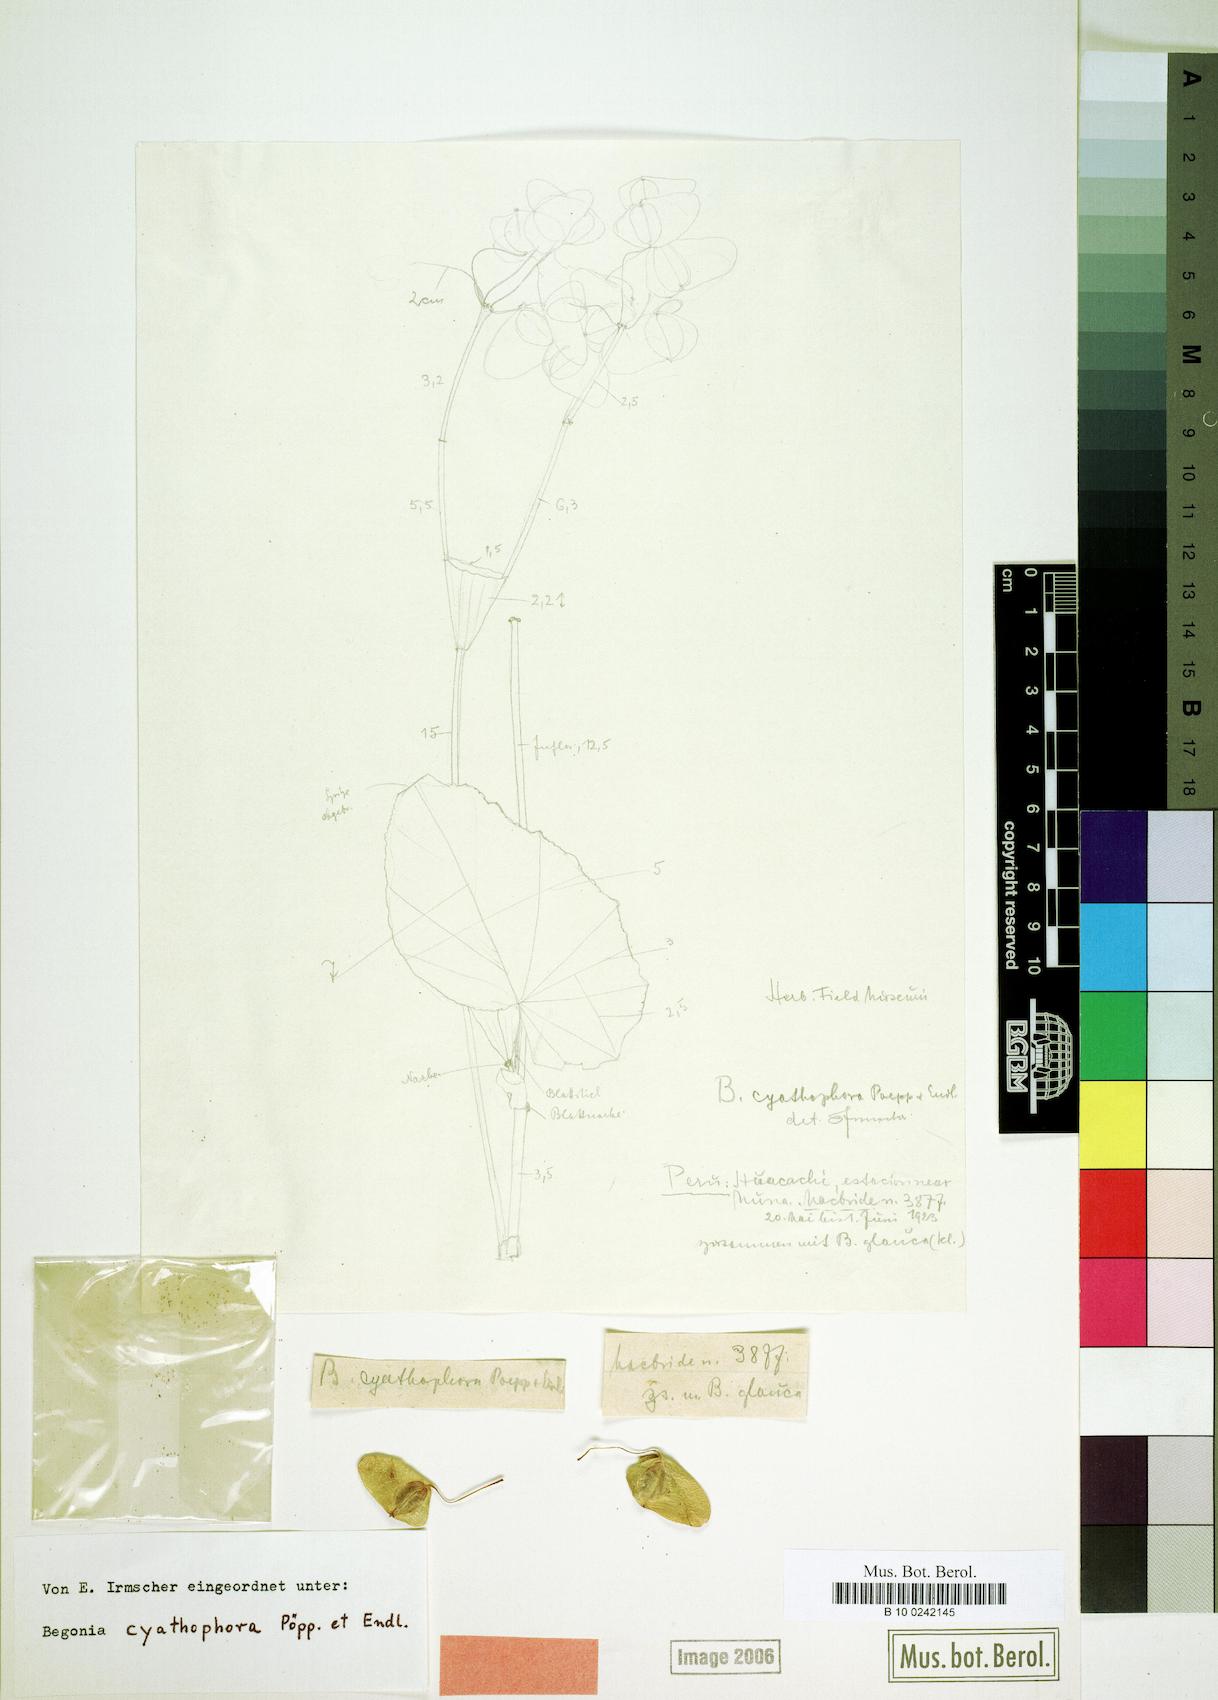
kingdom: Plantae
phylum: Tracheophyta
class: Magnoliopsida
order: Cucurbitales
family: Begoniaceae
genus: Begonia
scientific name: Begonia cyathophora
